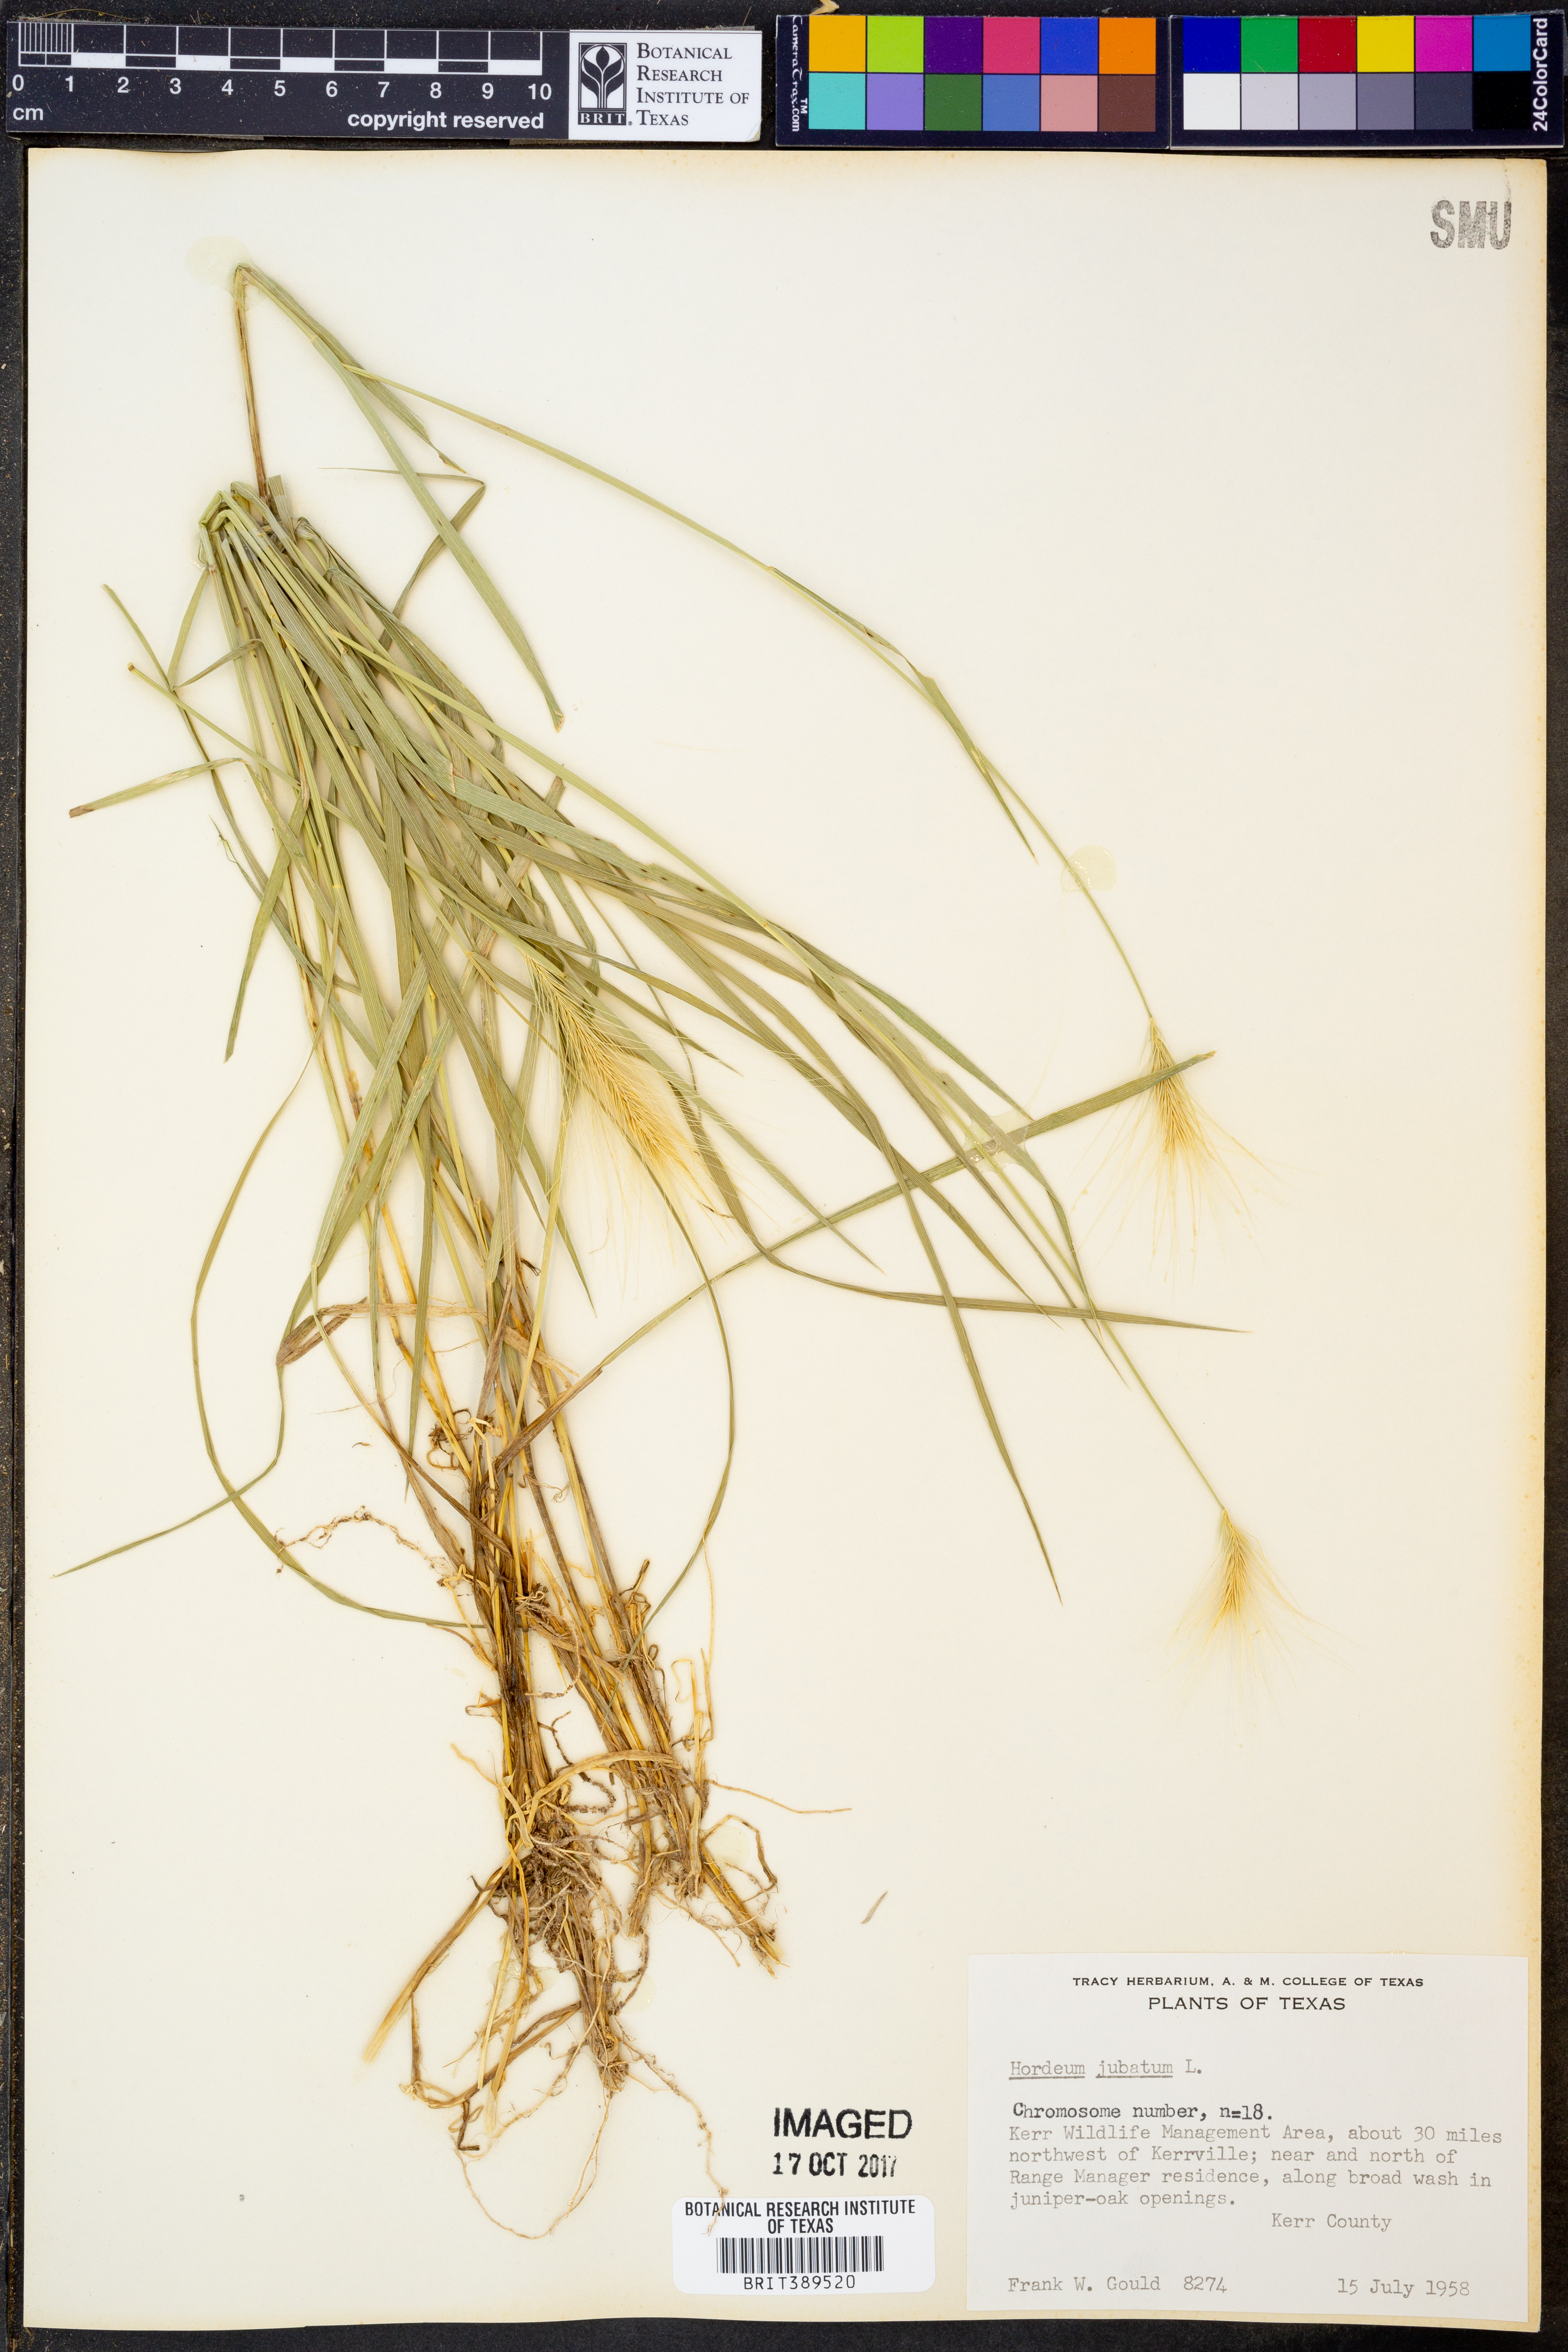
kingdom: Plantae
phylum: Tracheophyta
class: Liliopsida
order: Poales
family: Poaceae
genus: Hordeum
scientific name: Hordeum jubatum
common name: Foxtail barley
